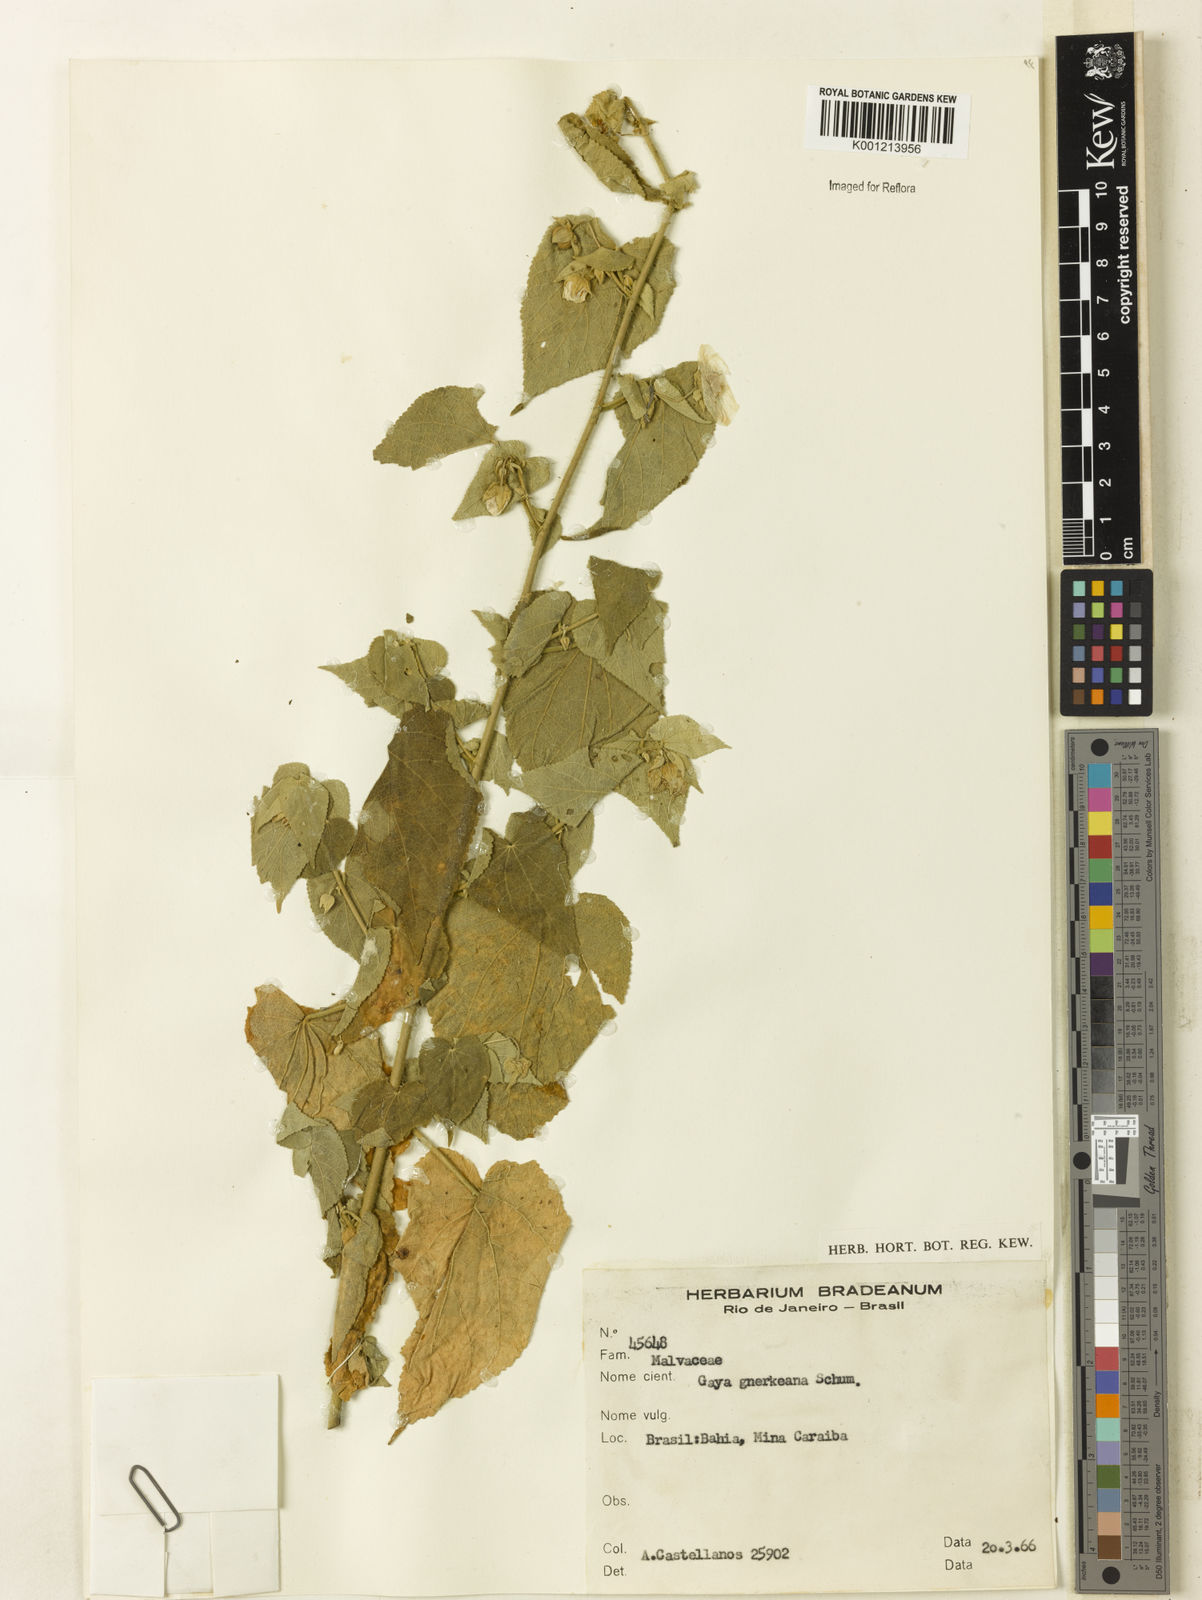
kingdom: Plantae
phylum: Tracheophyta
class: Magnoliopsida
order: Malvales
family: Malvaceae
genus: Gaya
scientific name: Gaya guerkeana
